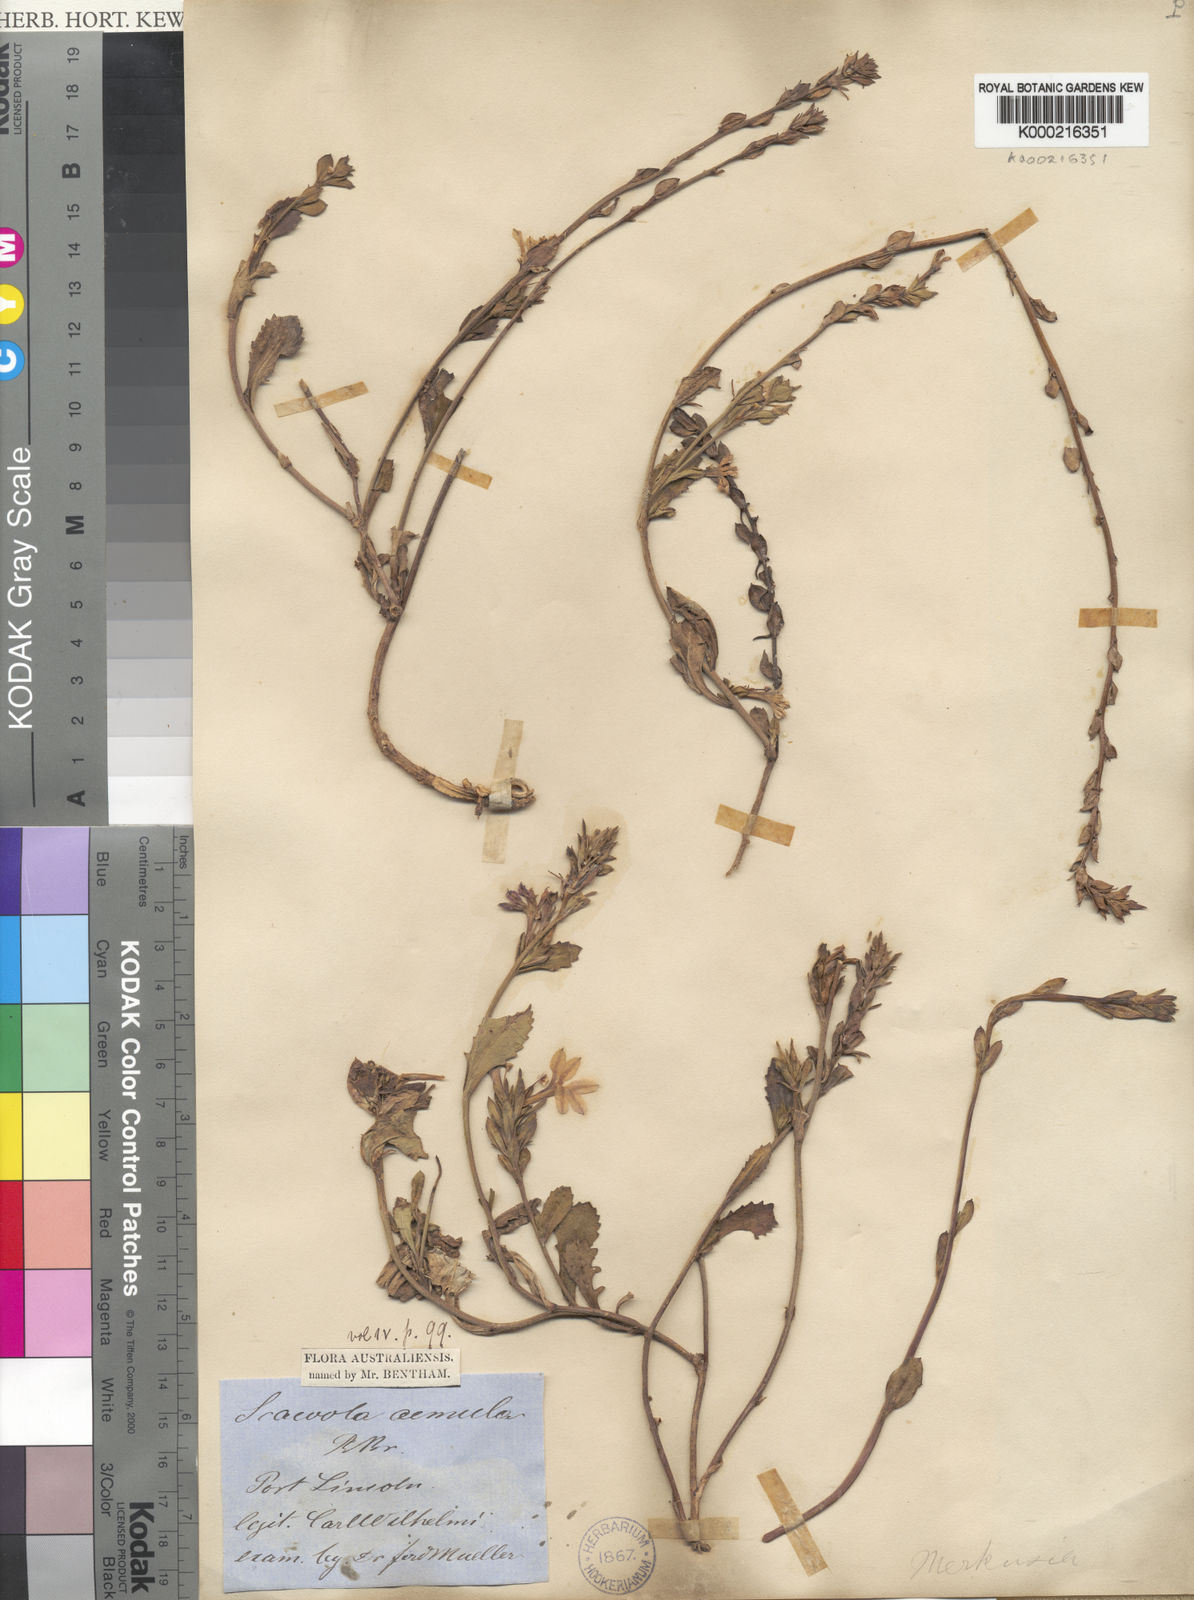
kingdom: Plantae
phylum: Tracheophyta
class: Magnoliopsida
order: Asterales
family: Goodeniaceae
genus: Scaevola
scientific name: Scaevola aemula
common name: Common fanflower
